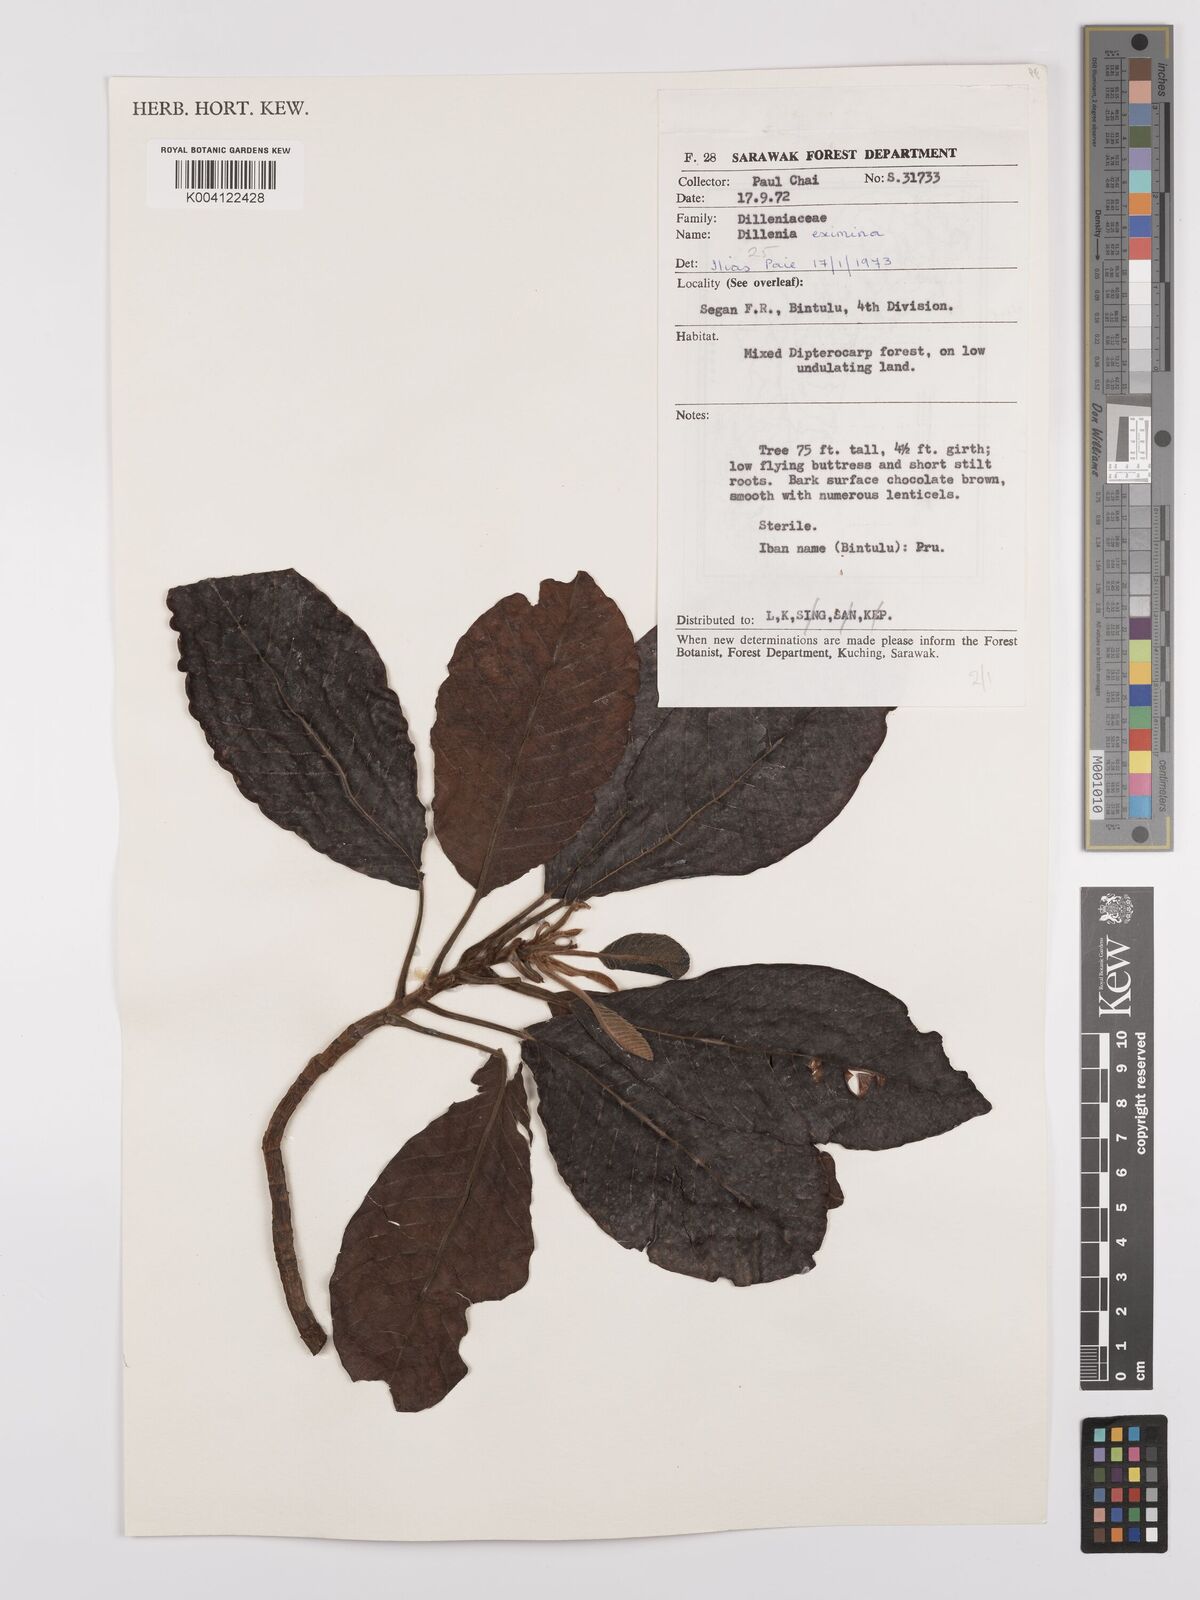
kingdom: Plantae
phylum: Tracheophyta
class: Magnoliopsida
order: Dilleniales
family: Dilleniaceae
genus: Dillenia
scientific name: Dillenia grandifolia
